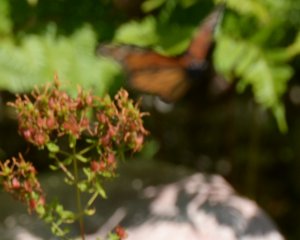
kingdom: Animalia
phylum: Arthropoda
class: Insecta
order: Lepidoptera
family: Nymphalidae
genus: Danaus
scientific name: Danaus plexippus
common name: Monarch
